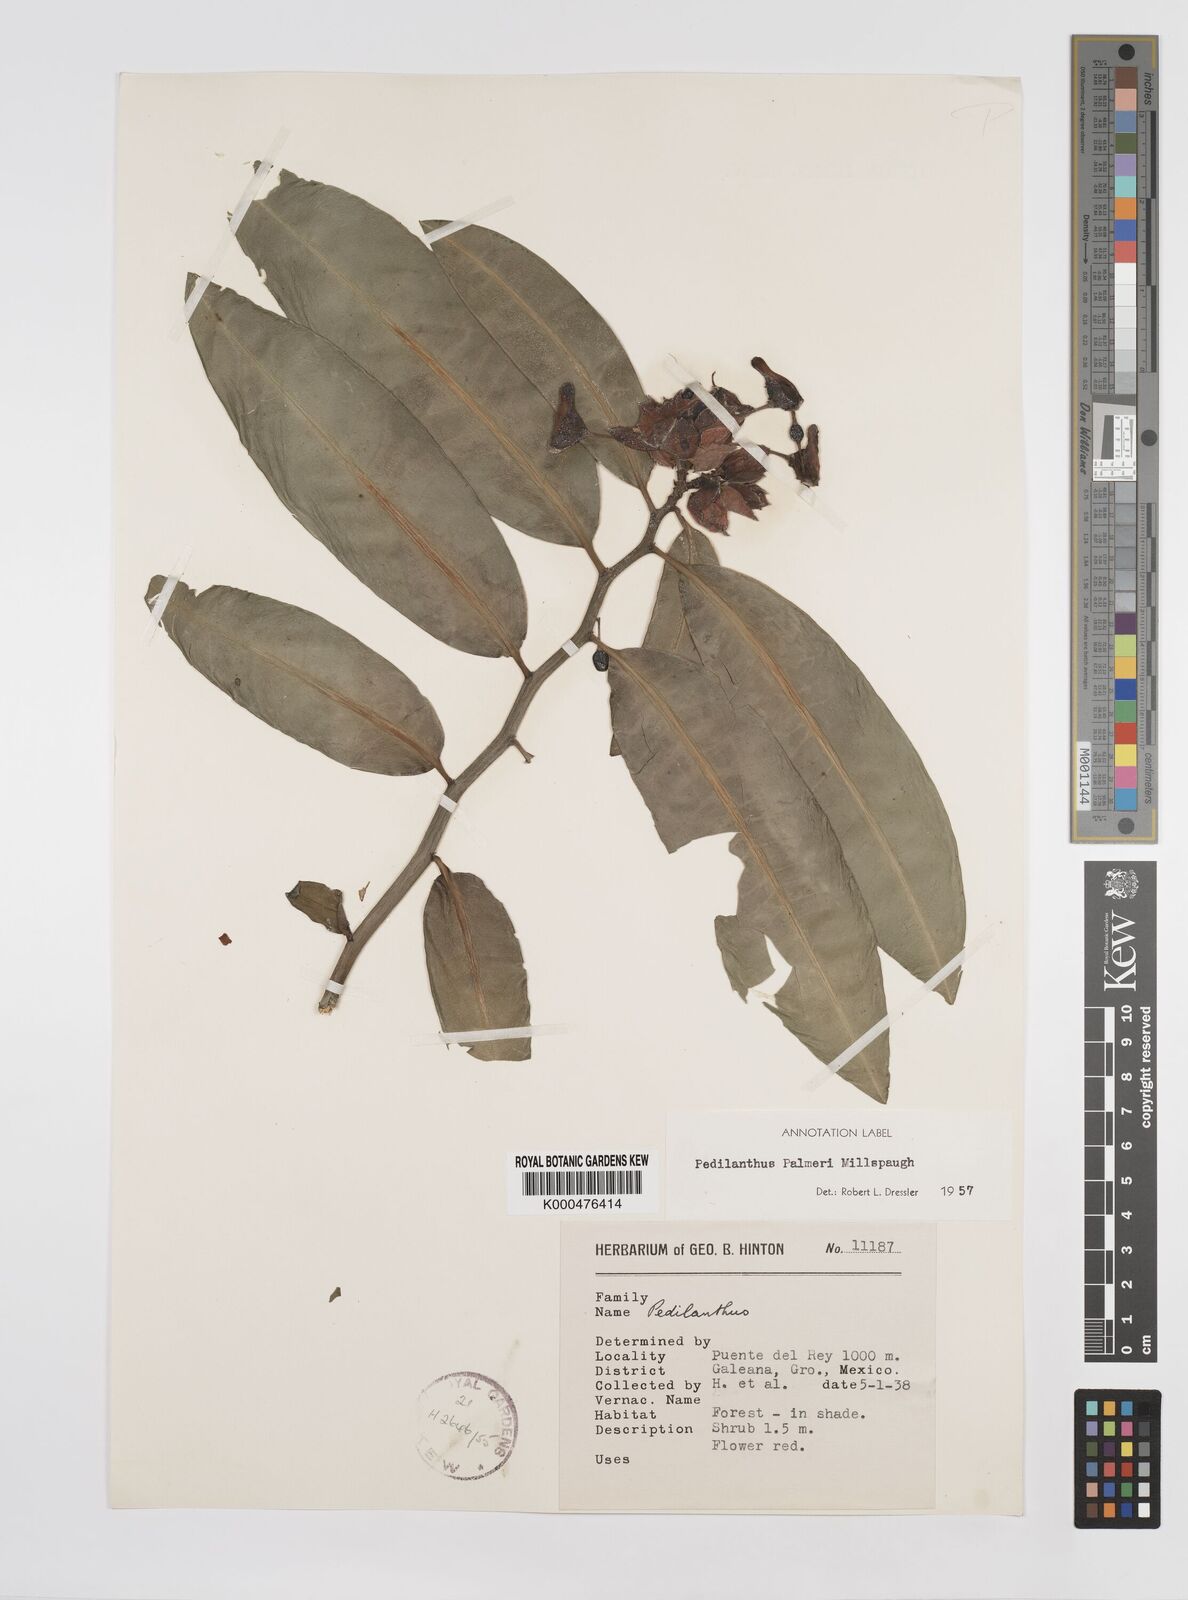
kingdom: Plantae
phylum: Tracheophyta
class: Magnoliopsida
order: Malpighiales
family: Euphorbiaceae
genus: Euphorbia
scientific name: Euphorbia peritropoides
